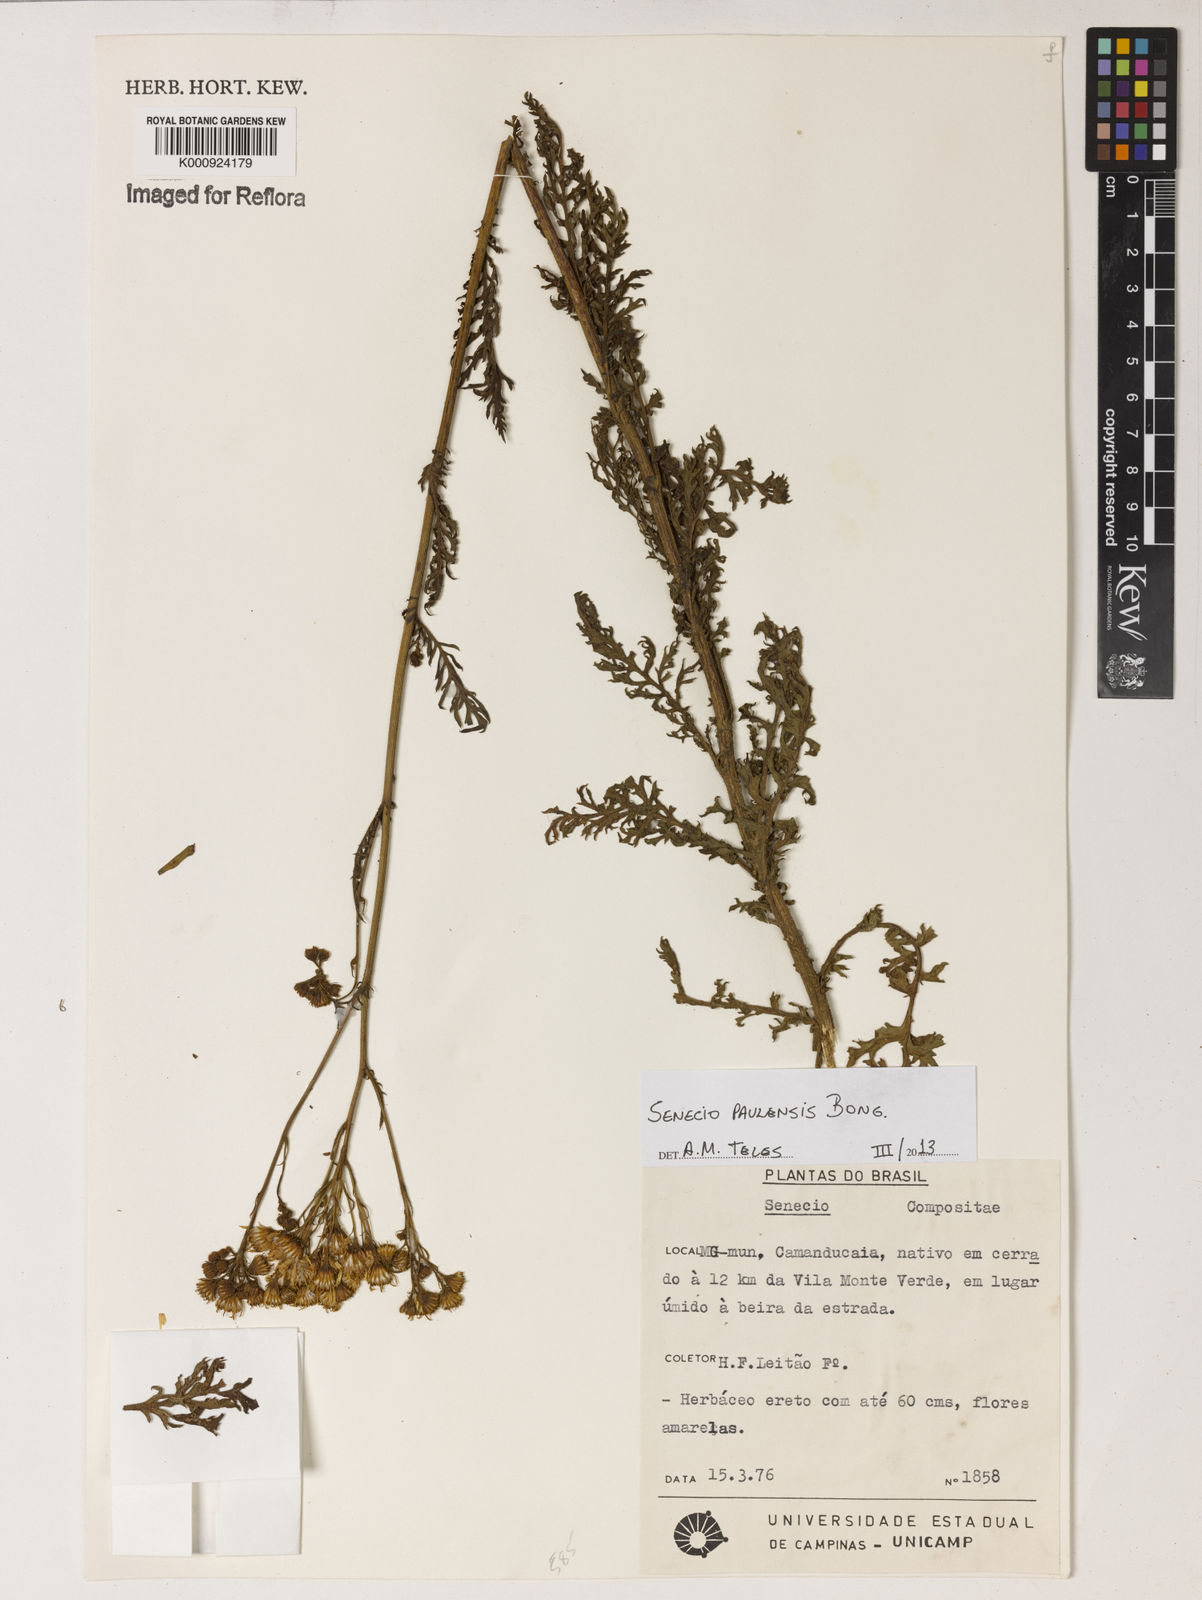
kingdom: Plantae
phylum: Tracheophyta
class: Magnoliopsida
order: Asterales
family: Asteraceae
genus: Senecio
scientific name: Senecio paulensis
